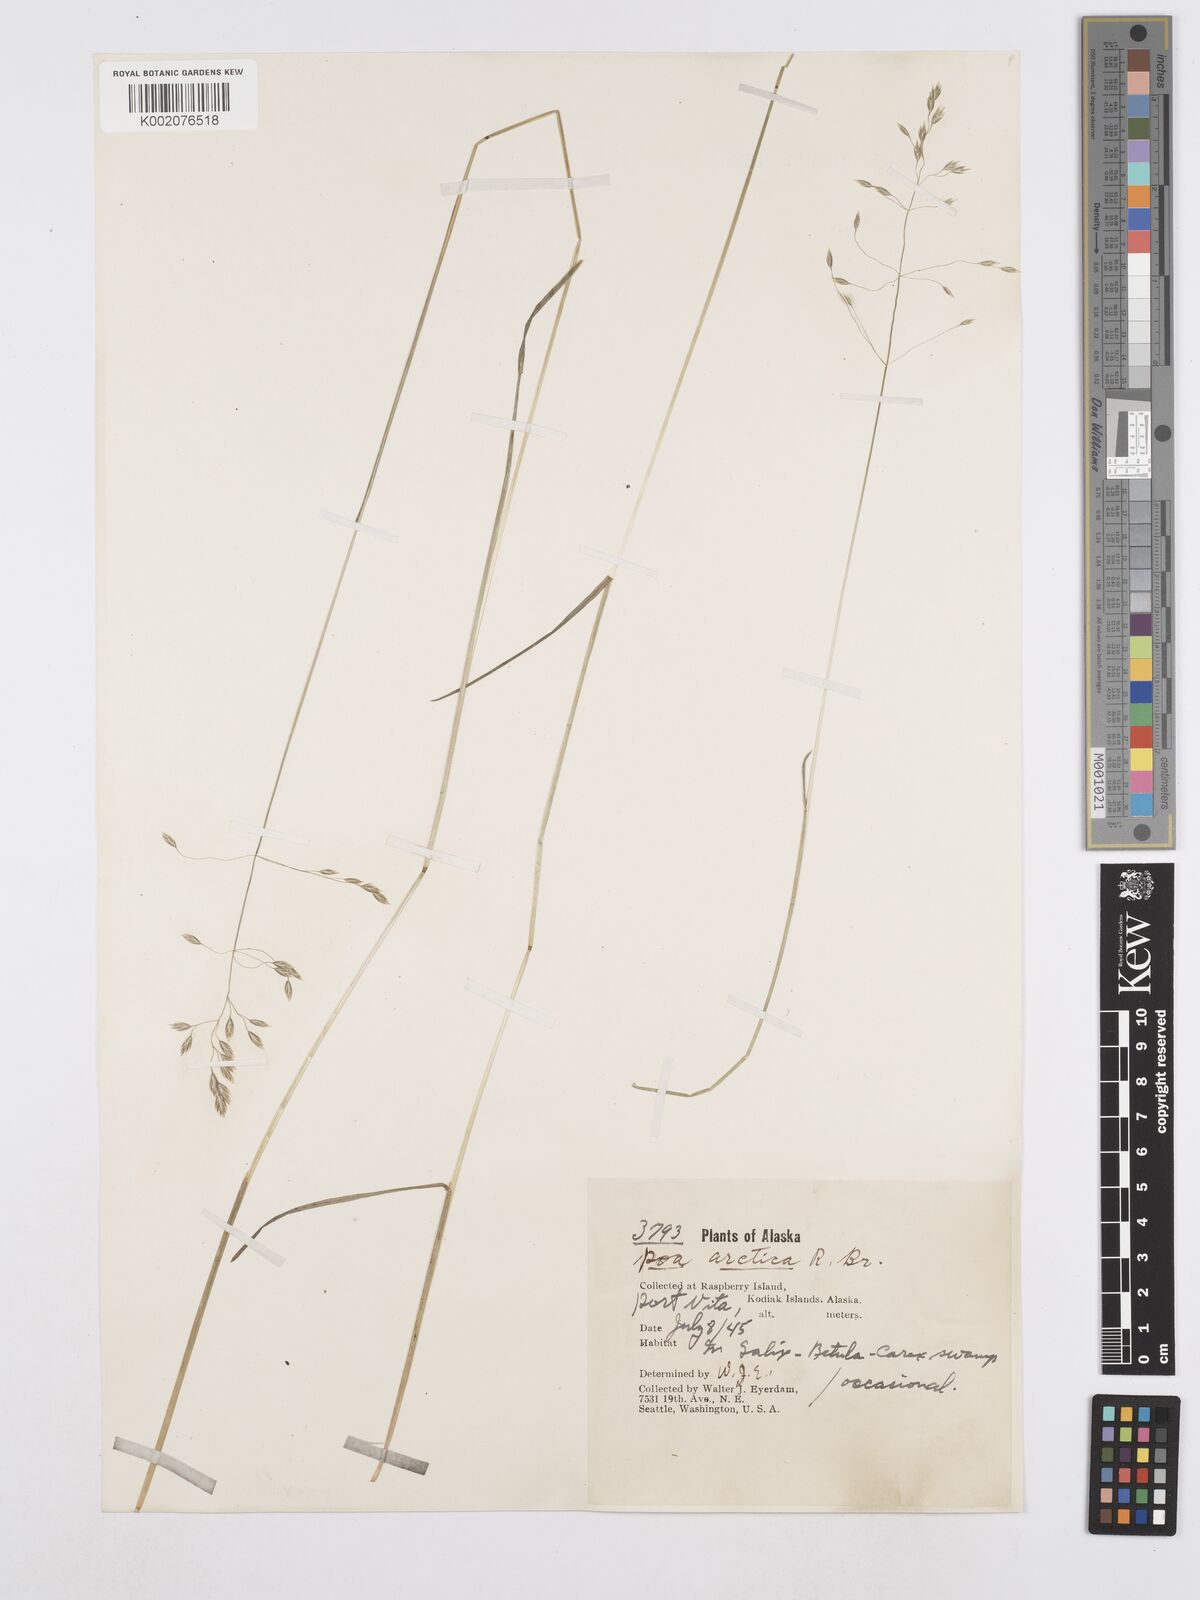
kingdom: Plantae
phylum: Tracheophyta
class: Liliopsida
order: Poales
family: Poaceae
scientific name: Poaceae
